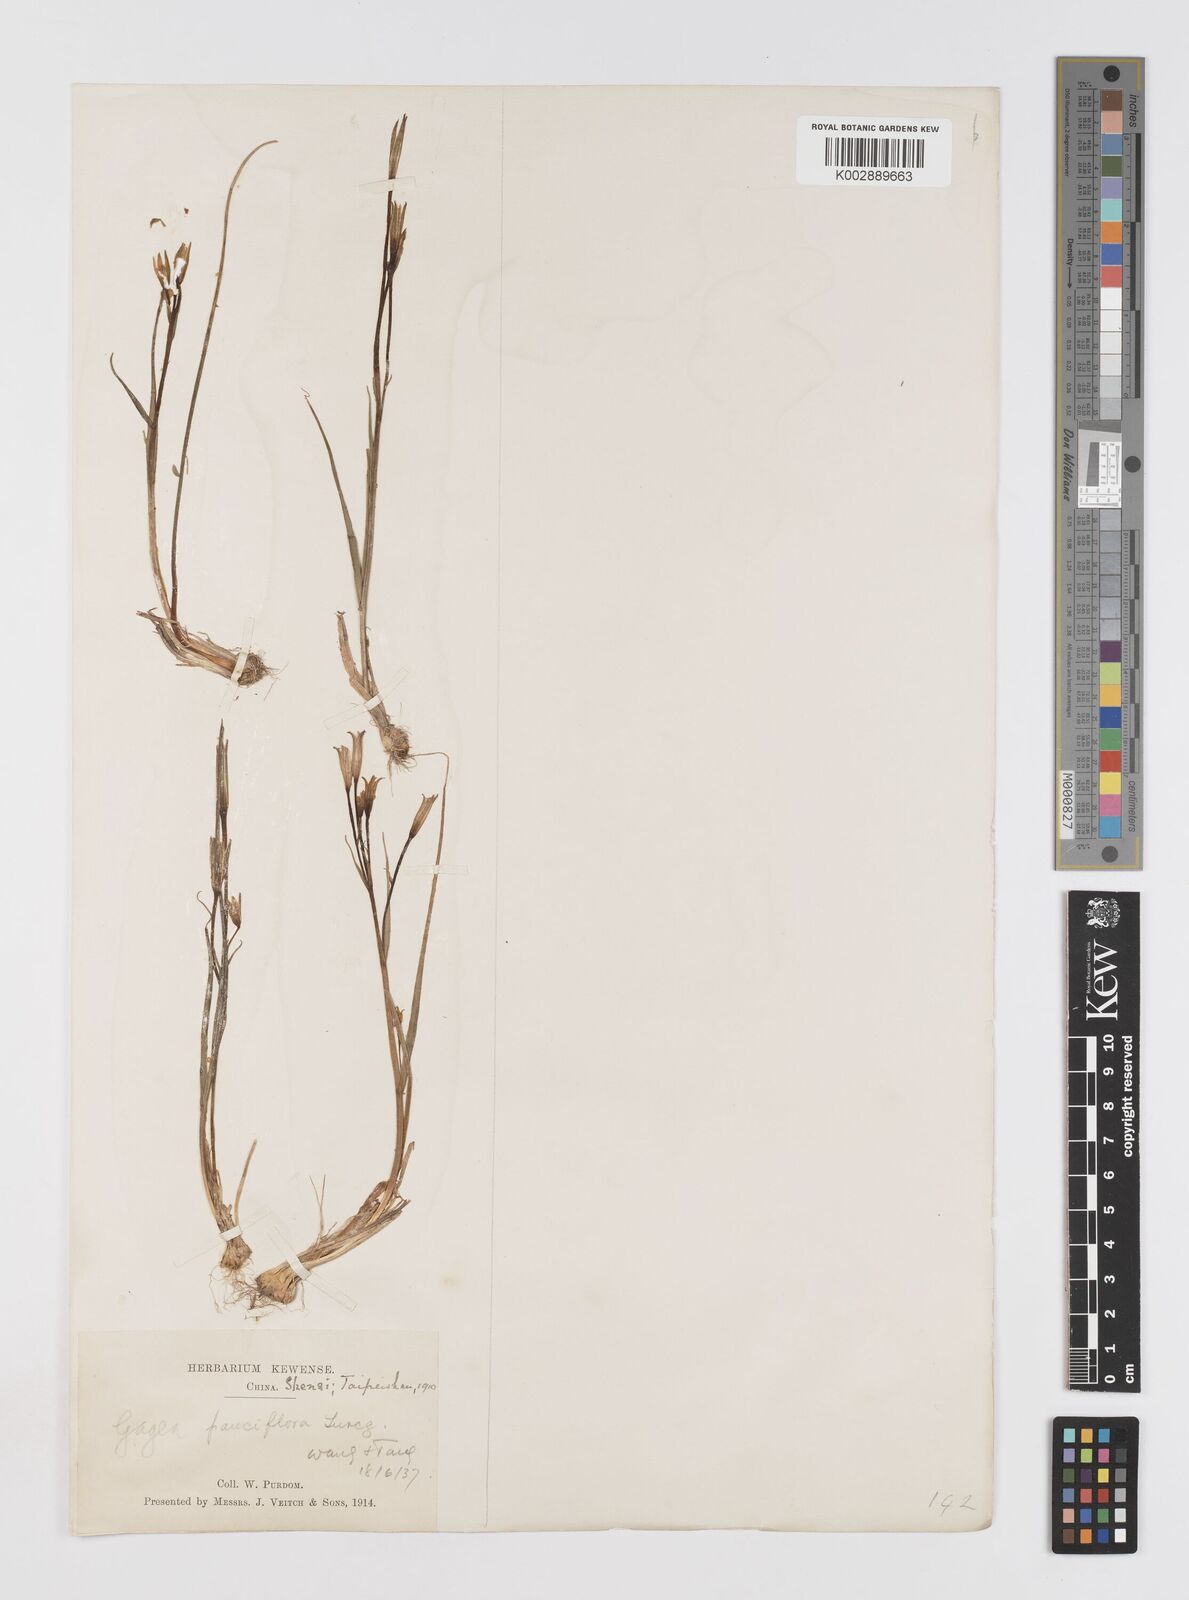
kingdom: Plantae
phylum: Tracheophyta
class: Liliopsida
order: Liliales
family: Liliaceae
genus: Gagea
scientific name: Gagea pauciflora
